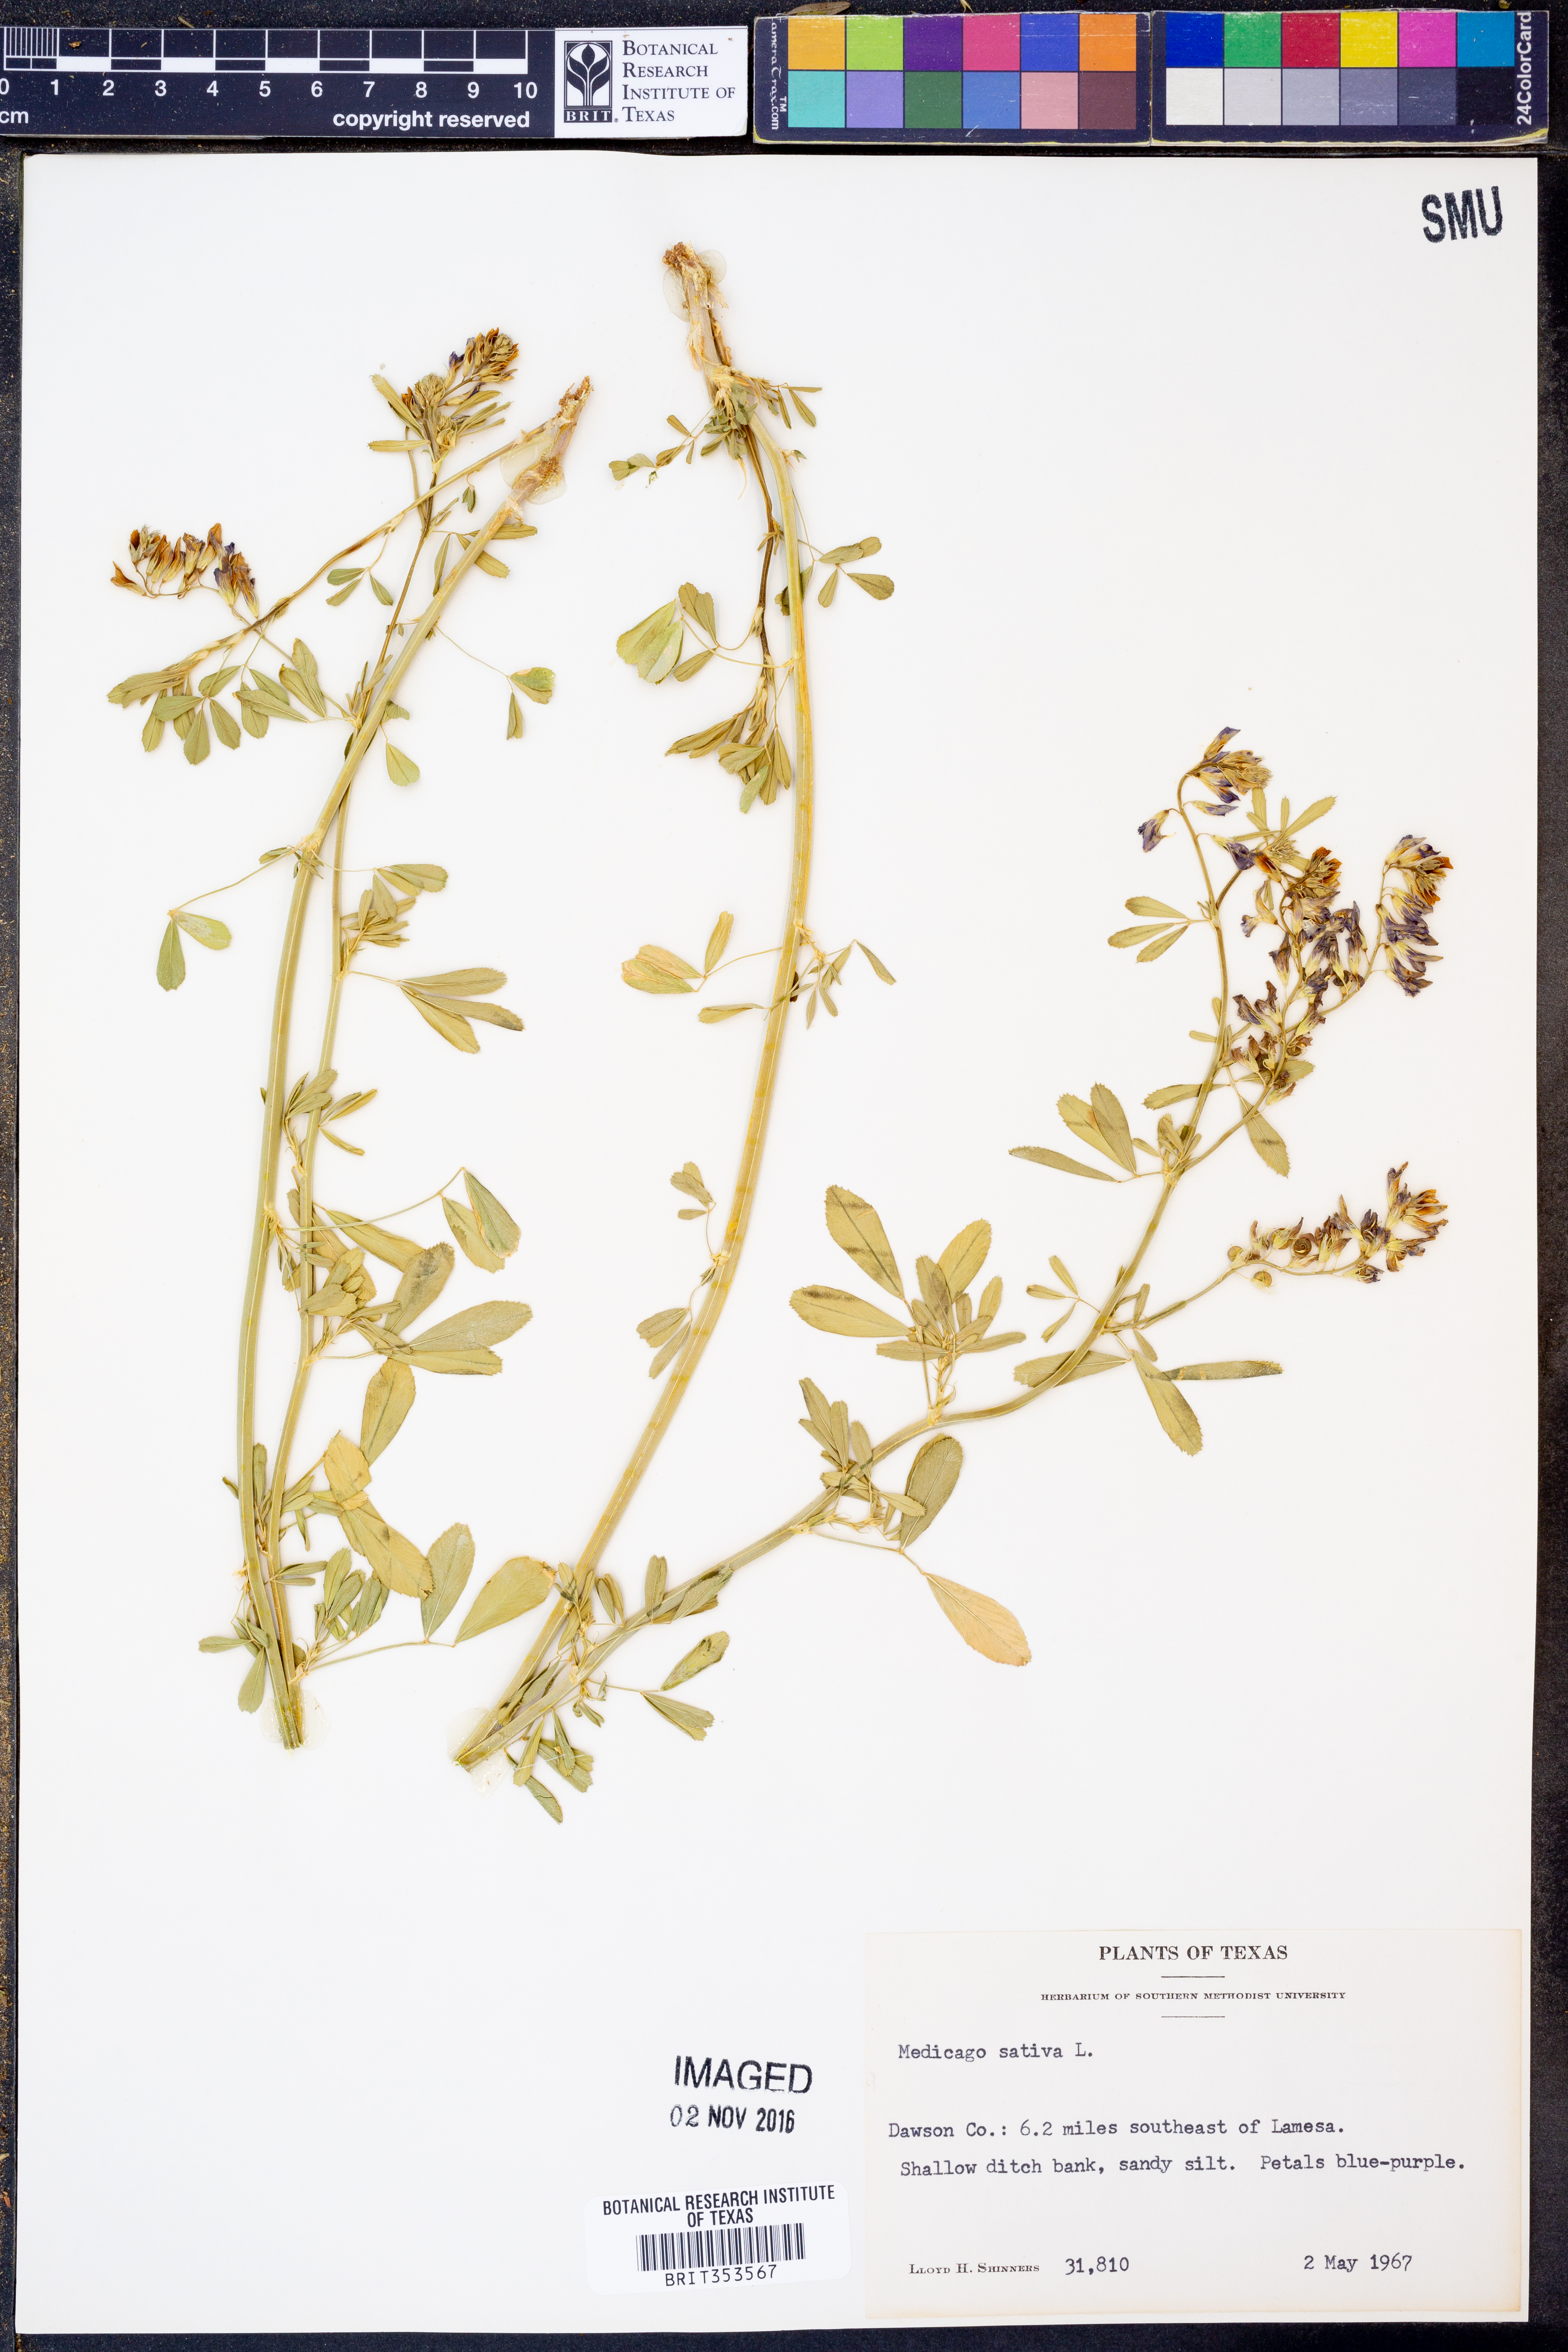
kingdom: Plantae
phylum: Tracheophyta
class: Magnoliopsida
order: Fabales
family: Fabaceae
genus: Medicago
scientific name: Medicago sativa
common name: Alfalfa
